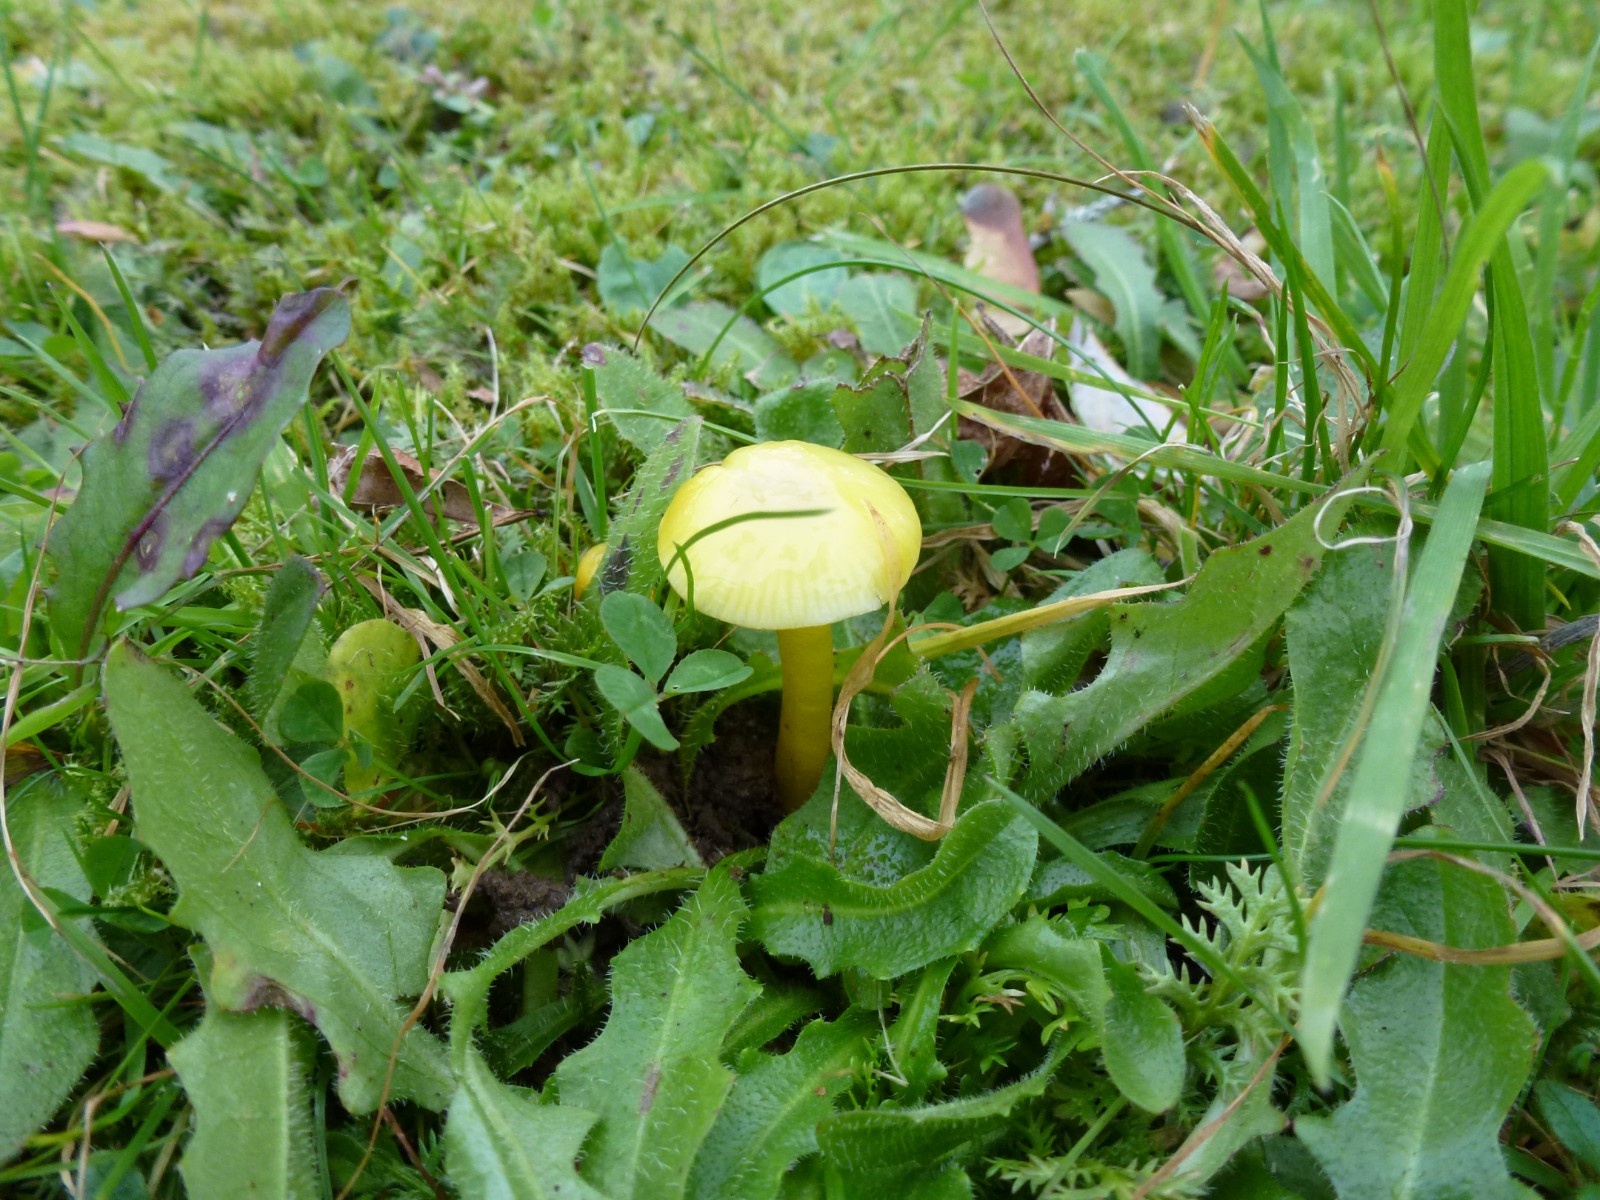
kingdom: Fungi
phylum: Basidiomycota
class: Agaricomycetes
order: Agaricales
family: Hygrophoraceae
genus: Hygrocybe
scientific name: Hygrocybe ceracea
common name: voksgul vokshat
